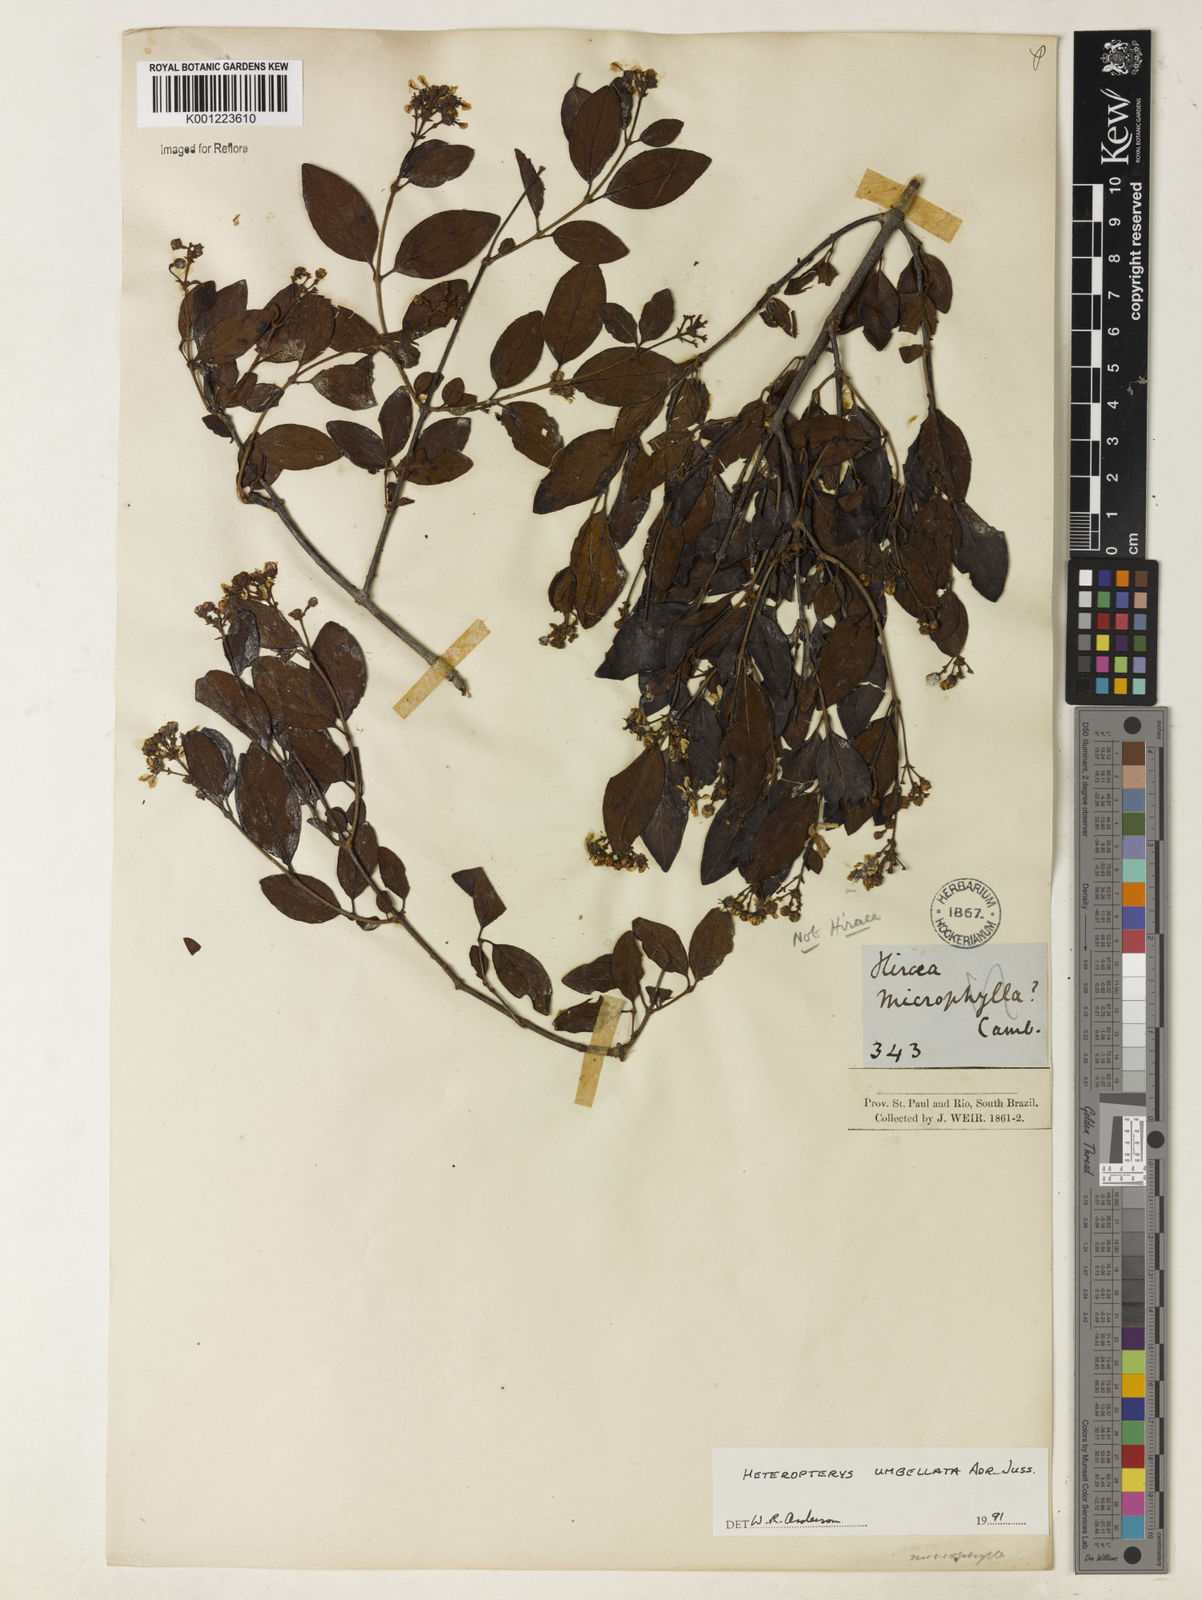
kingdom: Plantae
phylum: Tracheophyta
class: Magnoliopsida
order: Malpighiales
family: Malpighiaceae
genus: Heteropterys
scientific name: Heteropterys umbellata
